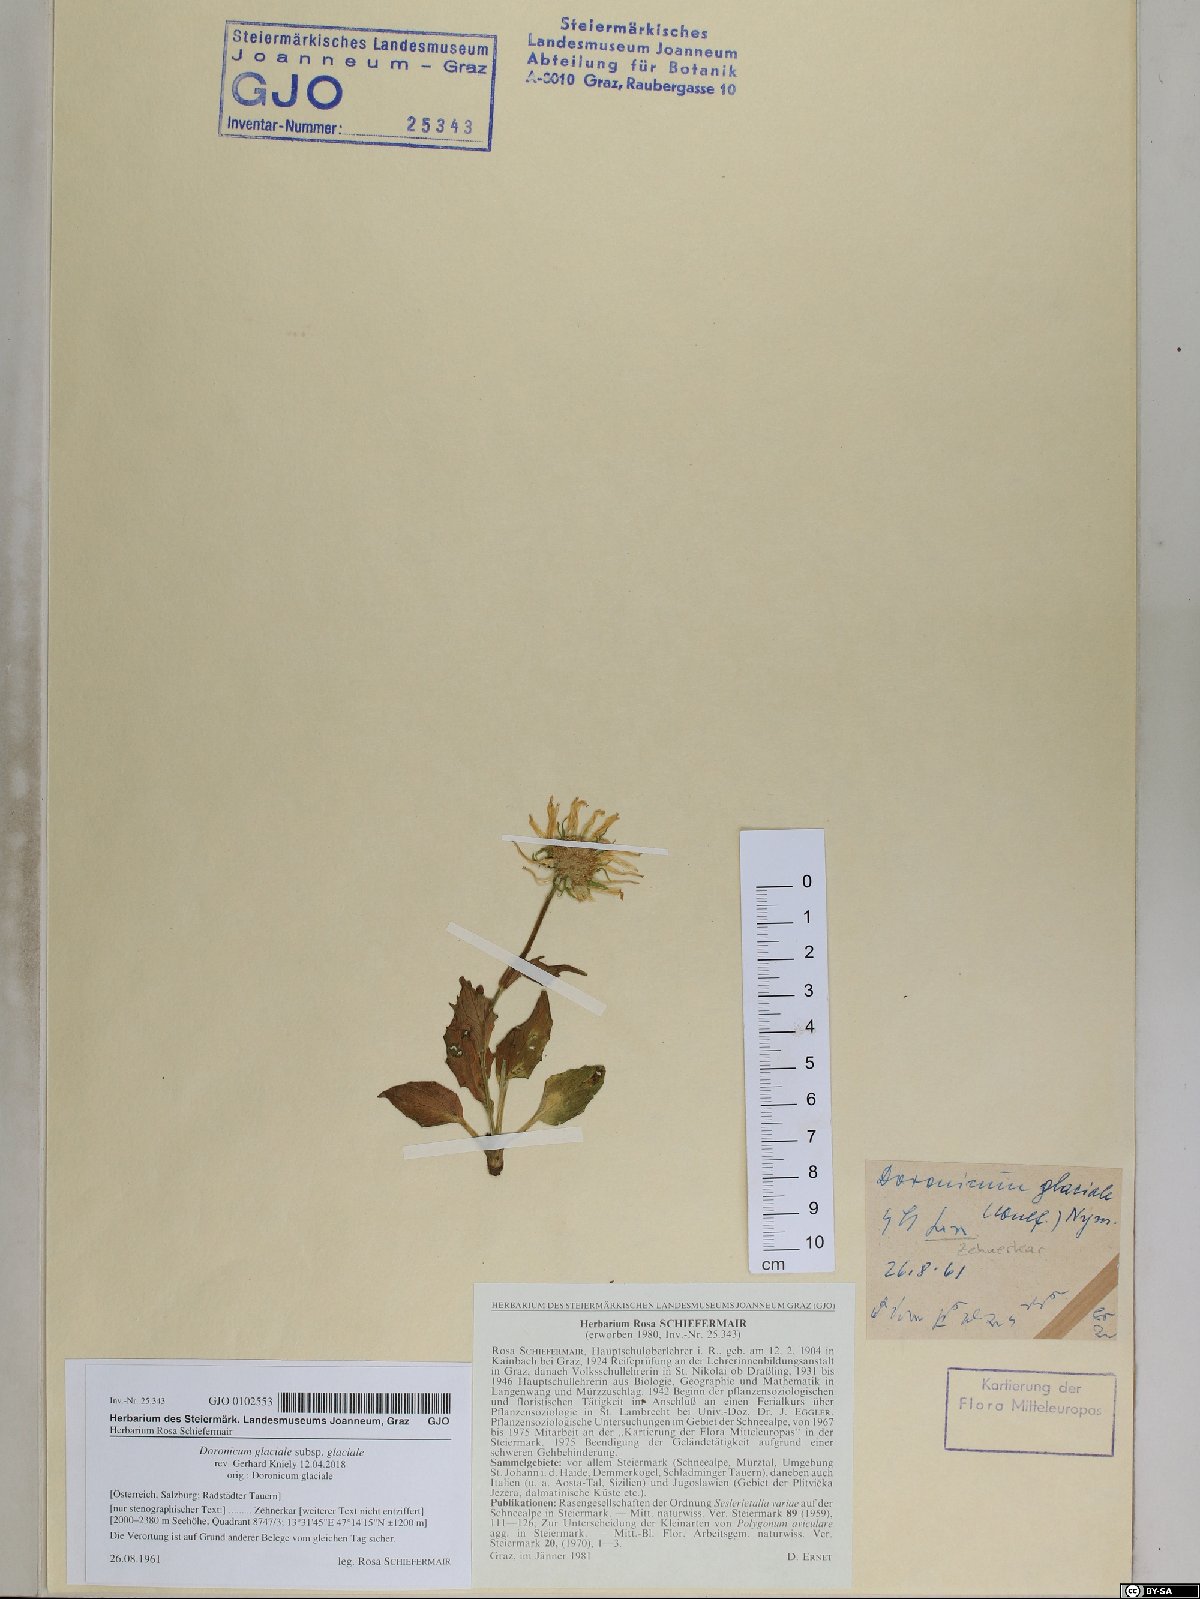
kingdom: Plantae
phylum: Tracheophyta
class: Magnoliopsida
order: Asterales
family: Asteraceae
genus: Doronicum
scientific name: Doronicum glaciale
